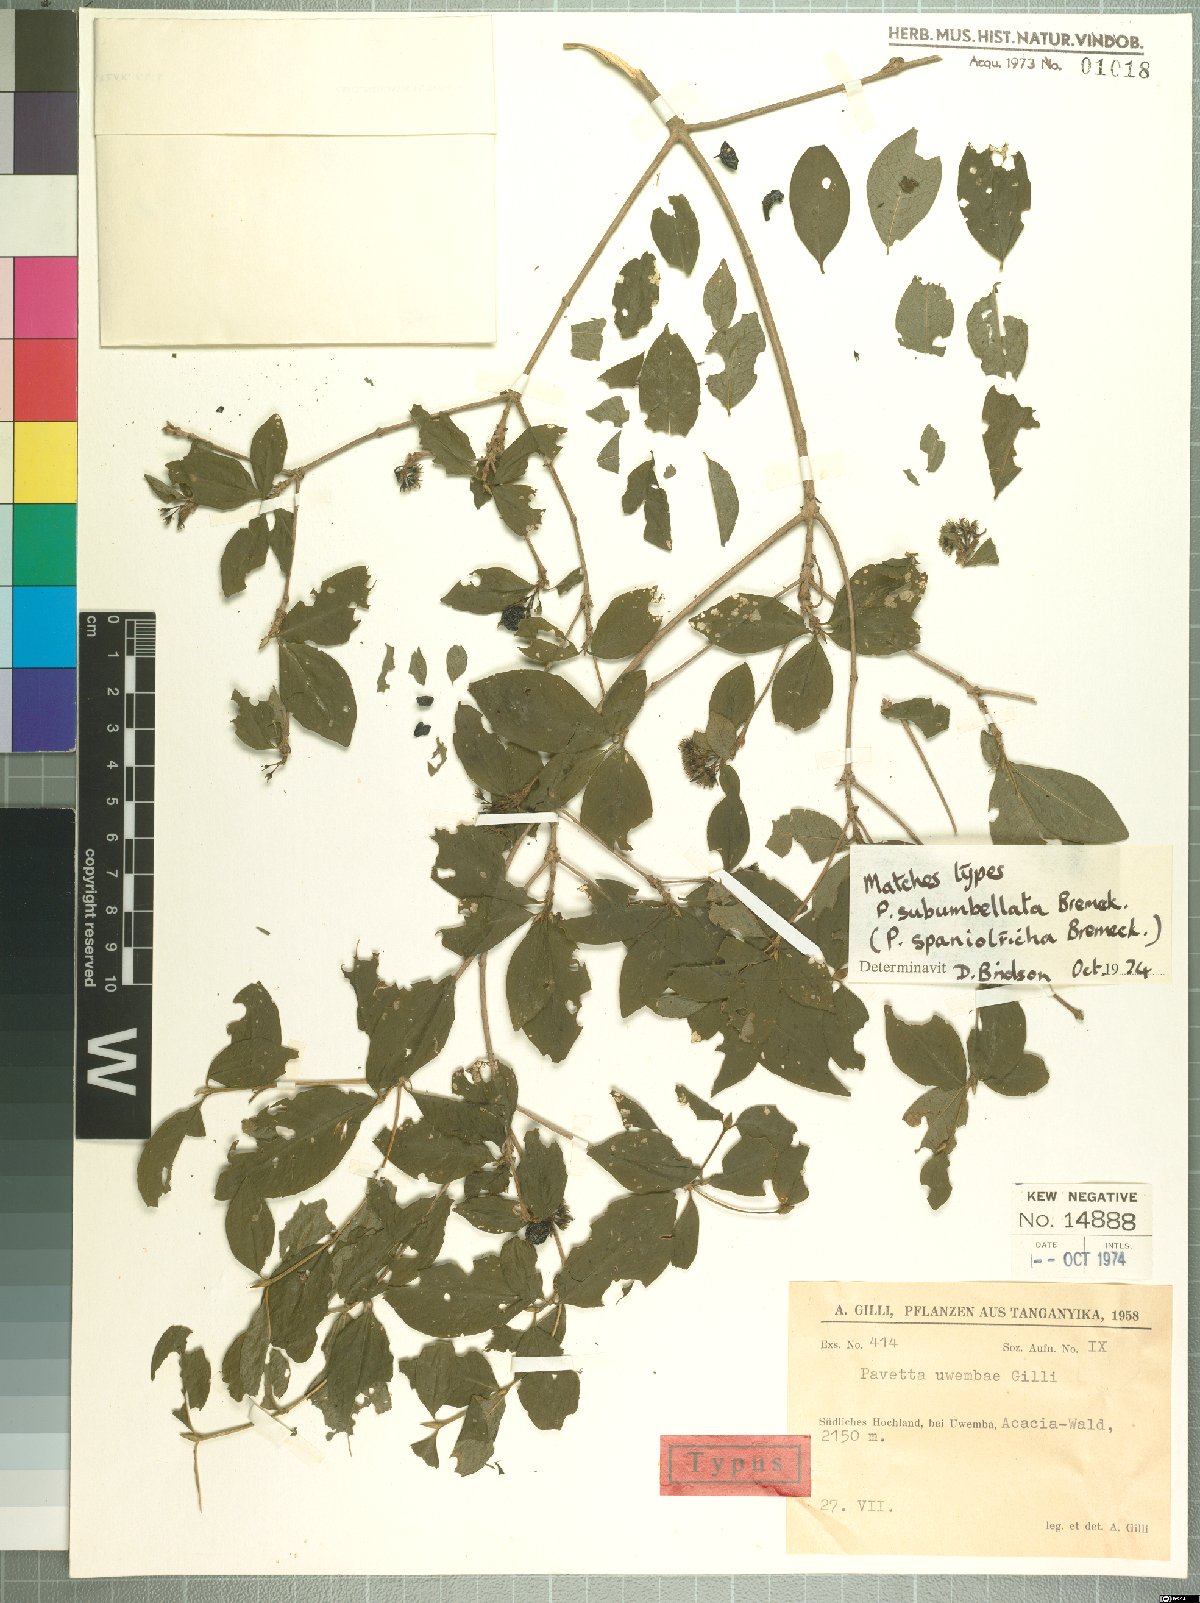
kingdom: Plantae
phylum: Tracheophyta
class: Magnoliopsida
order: Gentianales
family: Rubiaceae
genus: Pavetta
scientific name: Pavetta subumbellata
